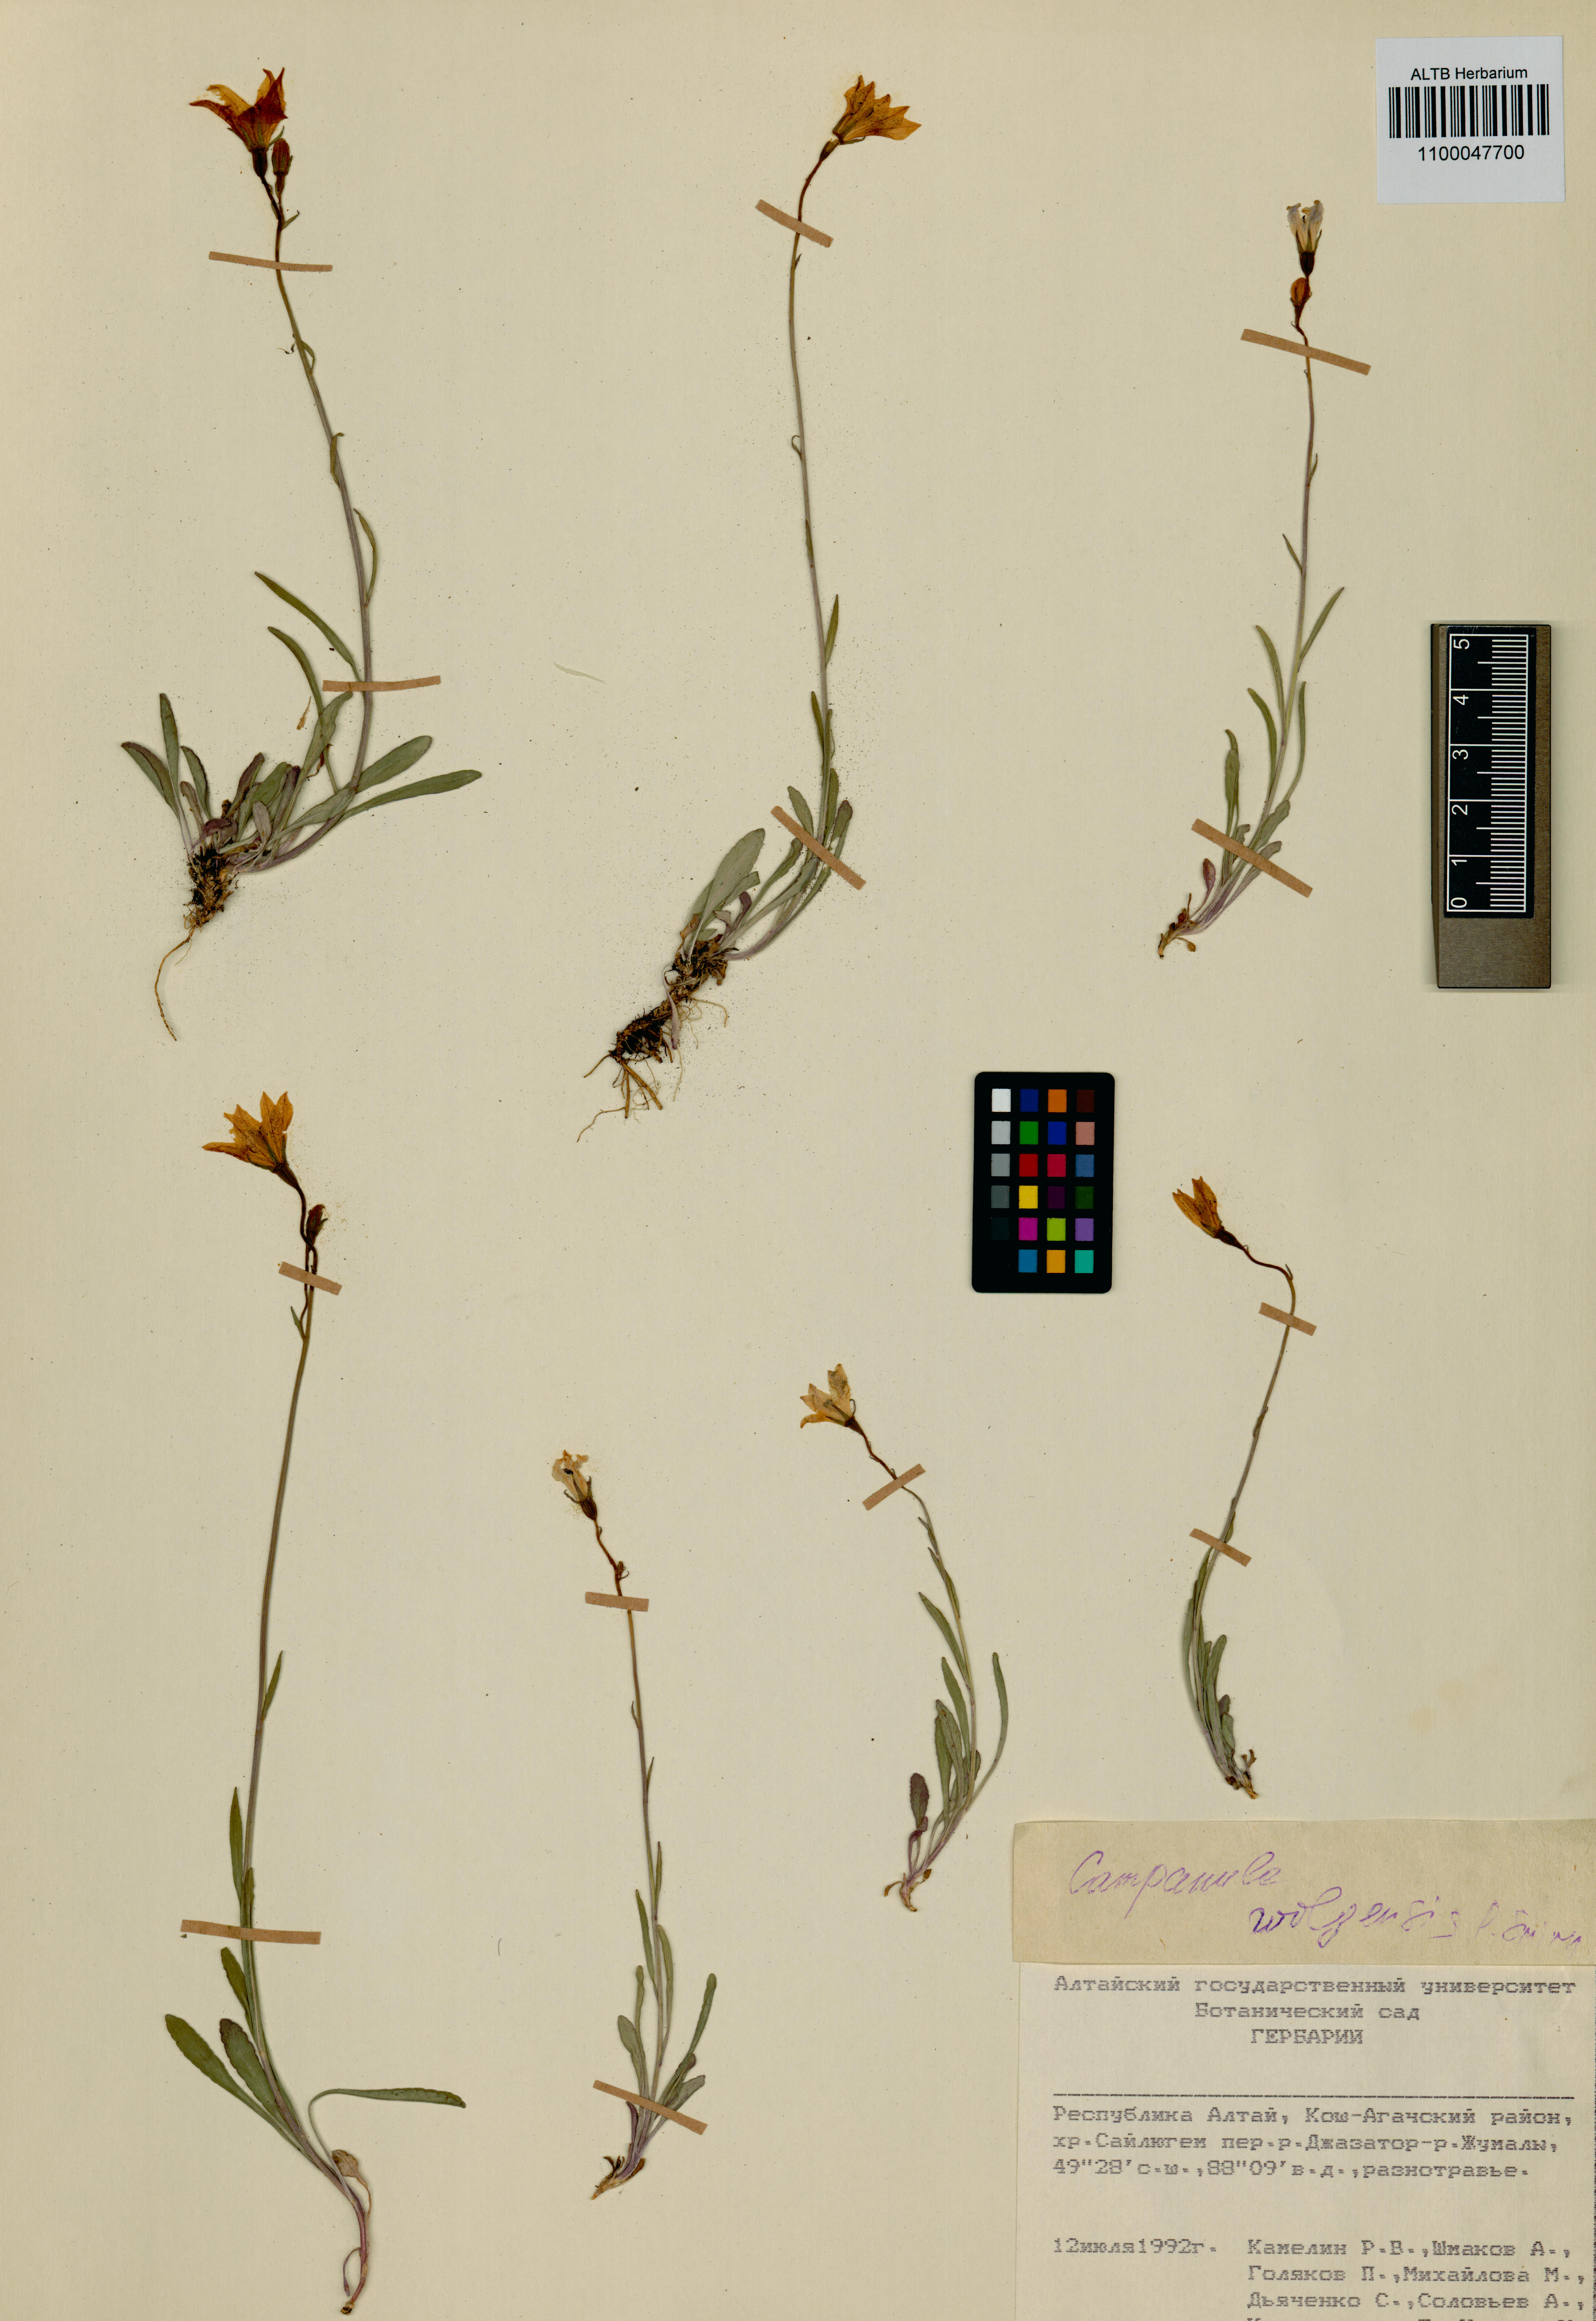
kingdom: Plantae
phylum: Tracheophyta
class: Magnoliopsida
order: Asterales
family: Campanulaceae
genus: Campanula
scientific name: Campanula stevenii
